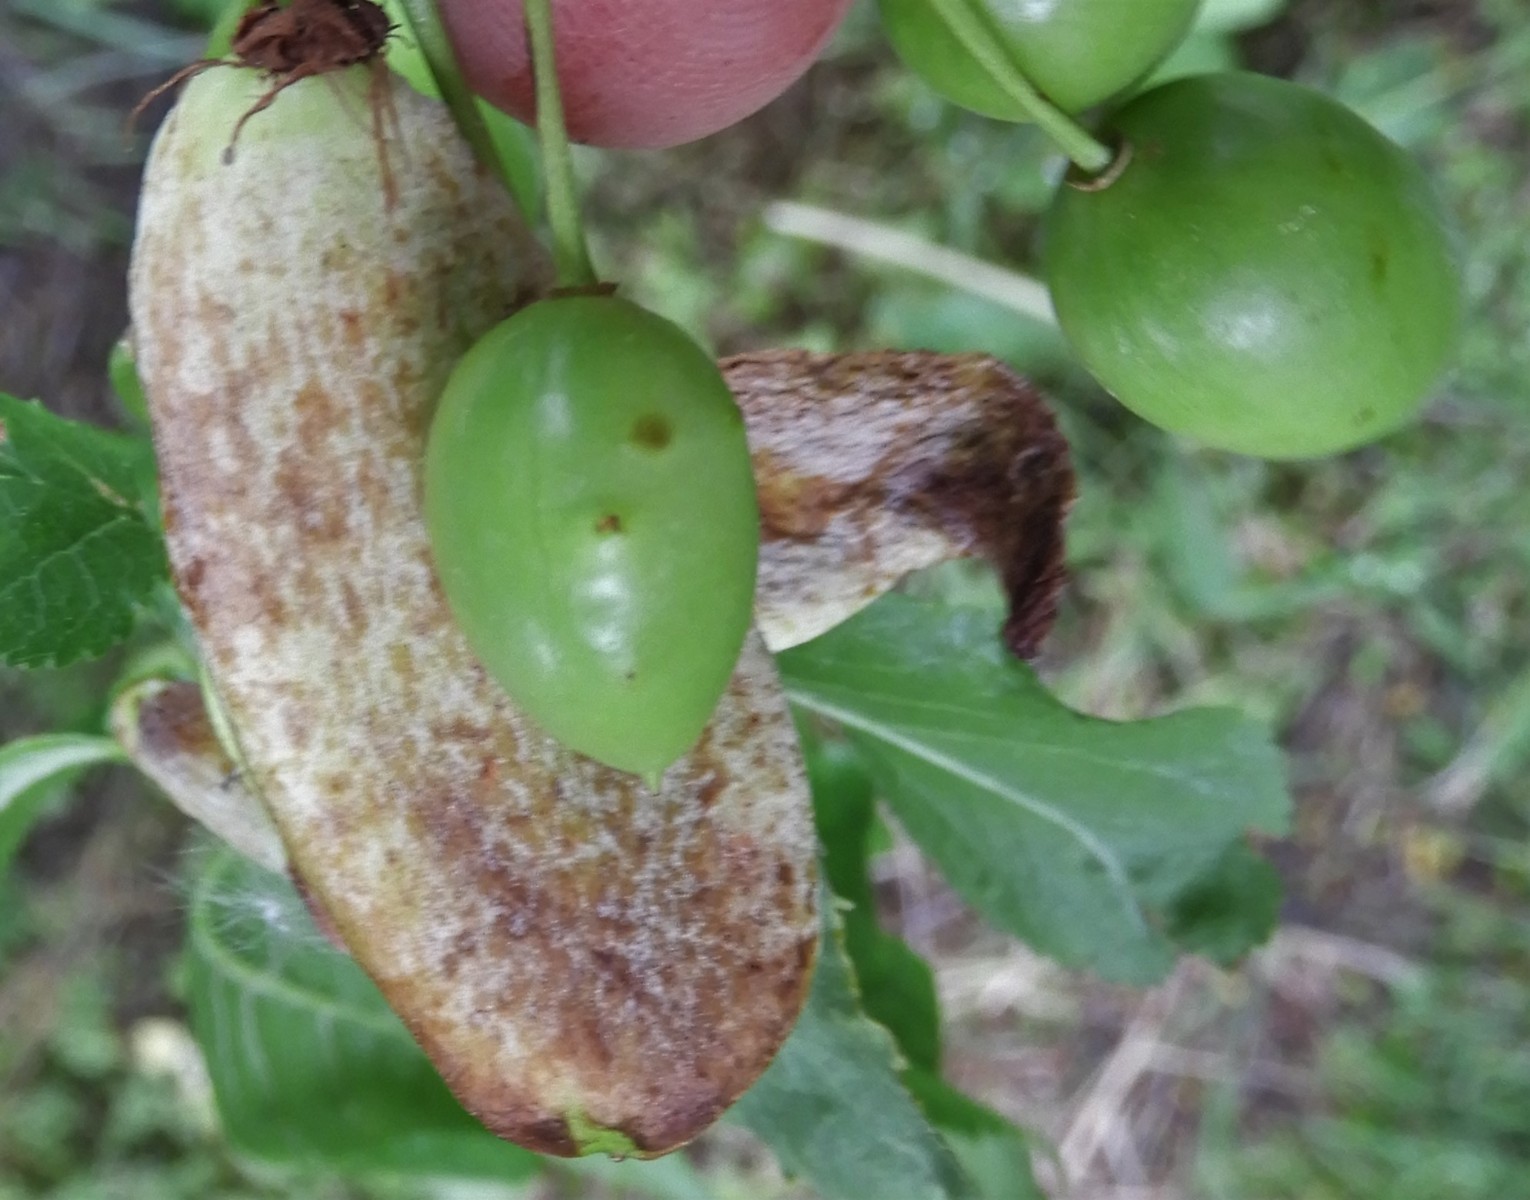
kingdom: Fungi
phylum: Ascomycota
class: Taphrinomycetes
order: Taphrinales
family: Taphrinaceae
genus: Taphrina
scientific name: Taphrina pruni
